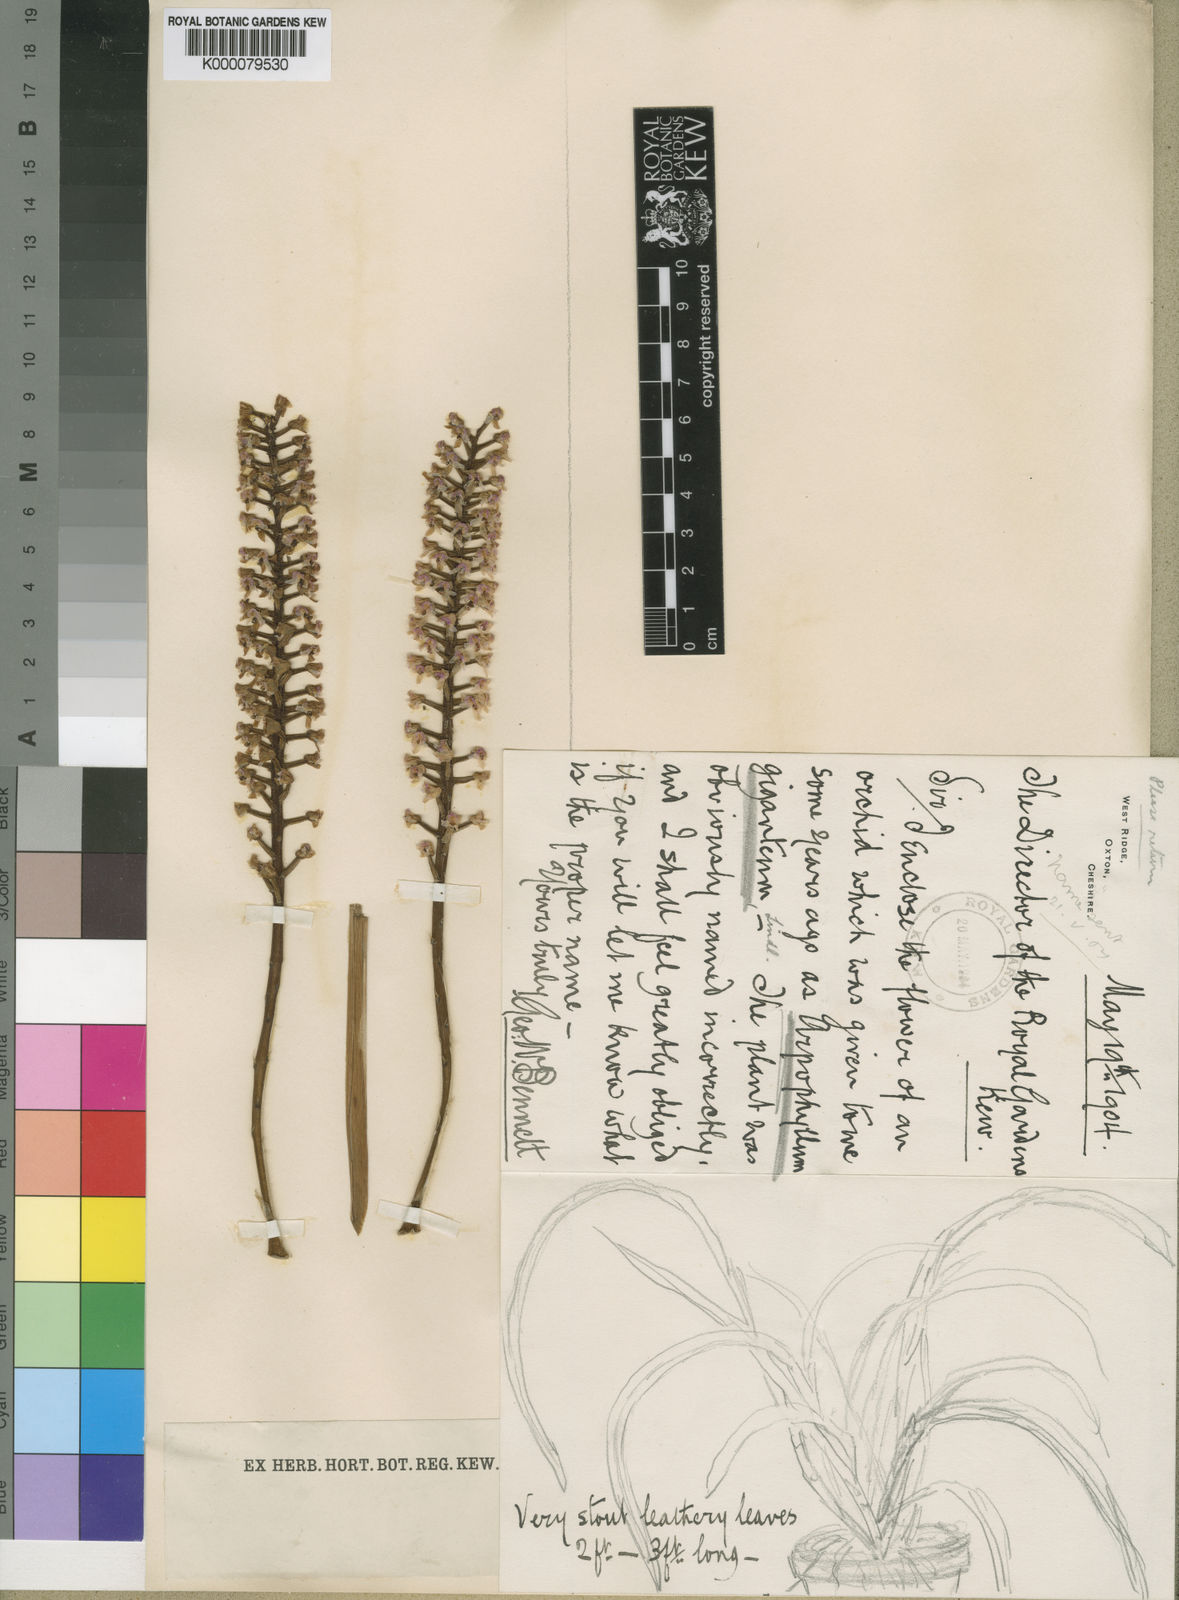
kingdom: Plantae
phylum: Tracheophyta
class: Liliopsida
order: Asparagales
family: Orchidaceae
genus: Arpophyllum
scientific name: Arpophyllum giganteum
